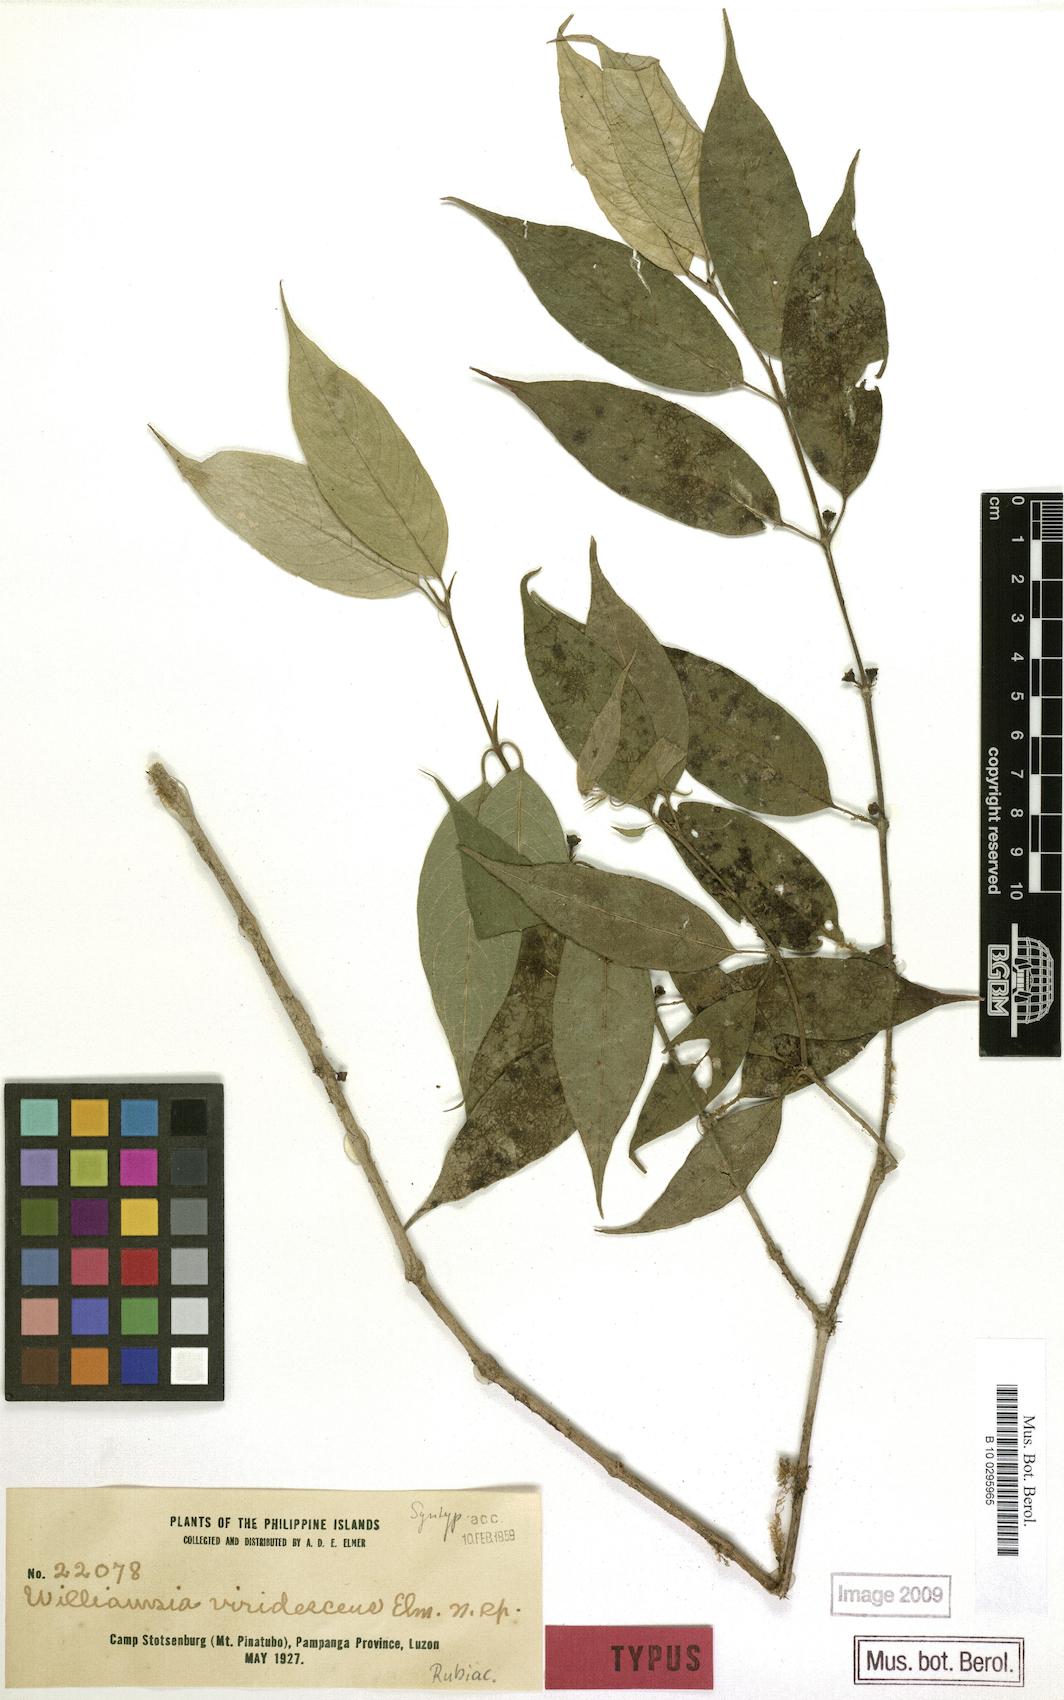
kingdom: Plantae
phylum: Tracheophyta
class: Magnoliopsida
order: Gentianales
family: Rubiaceae
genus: Praravinia
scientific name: Praravinia viridescens
